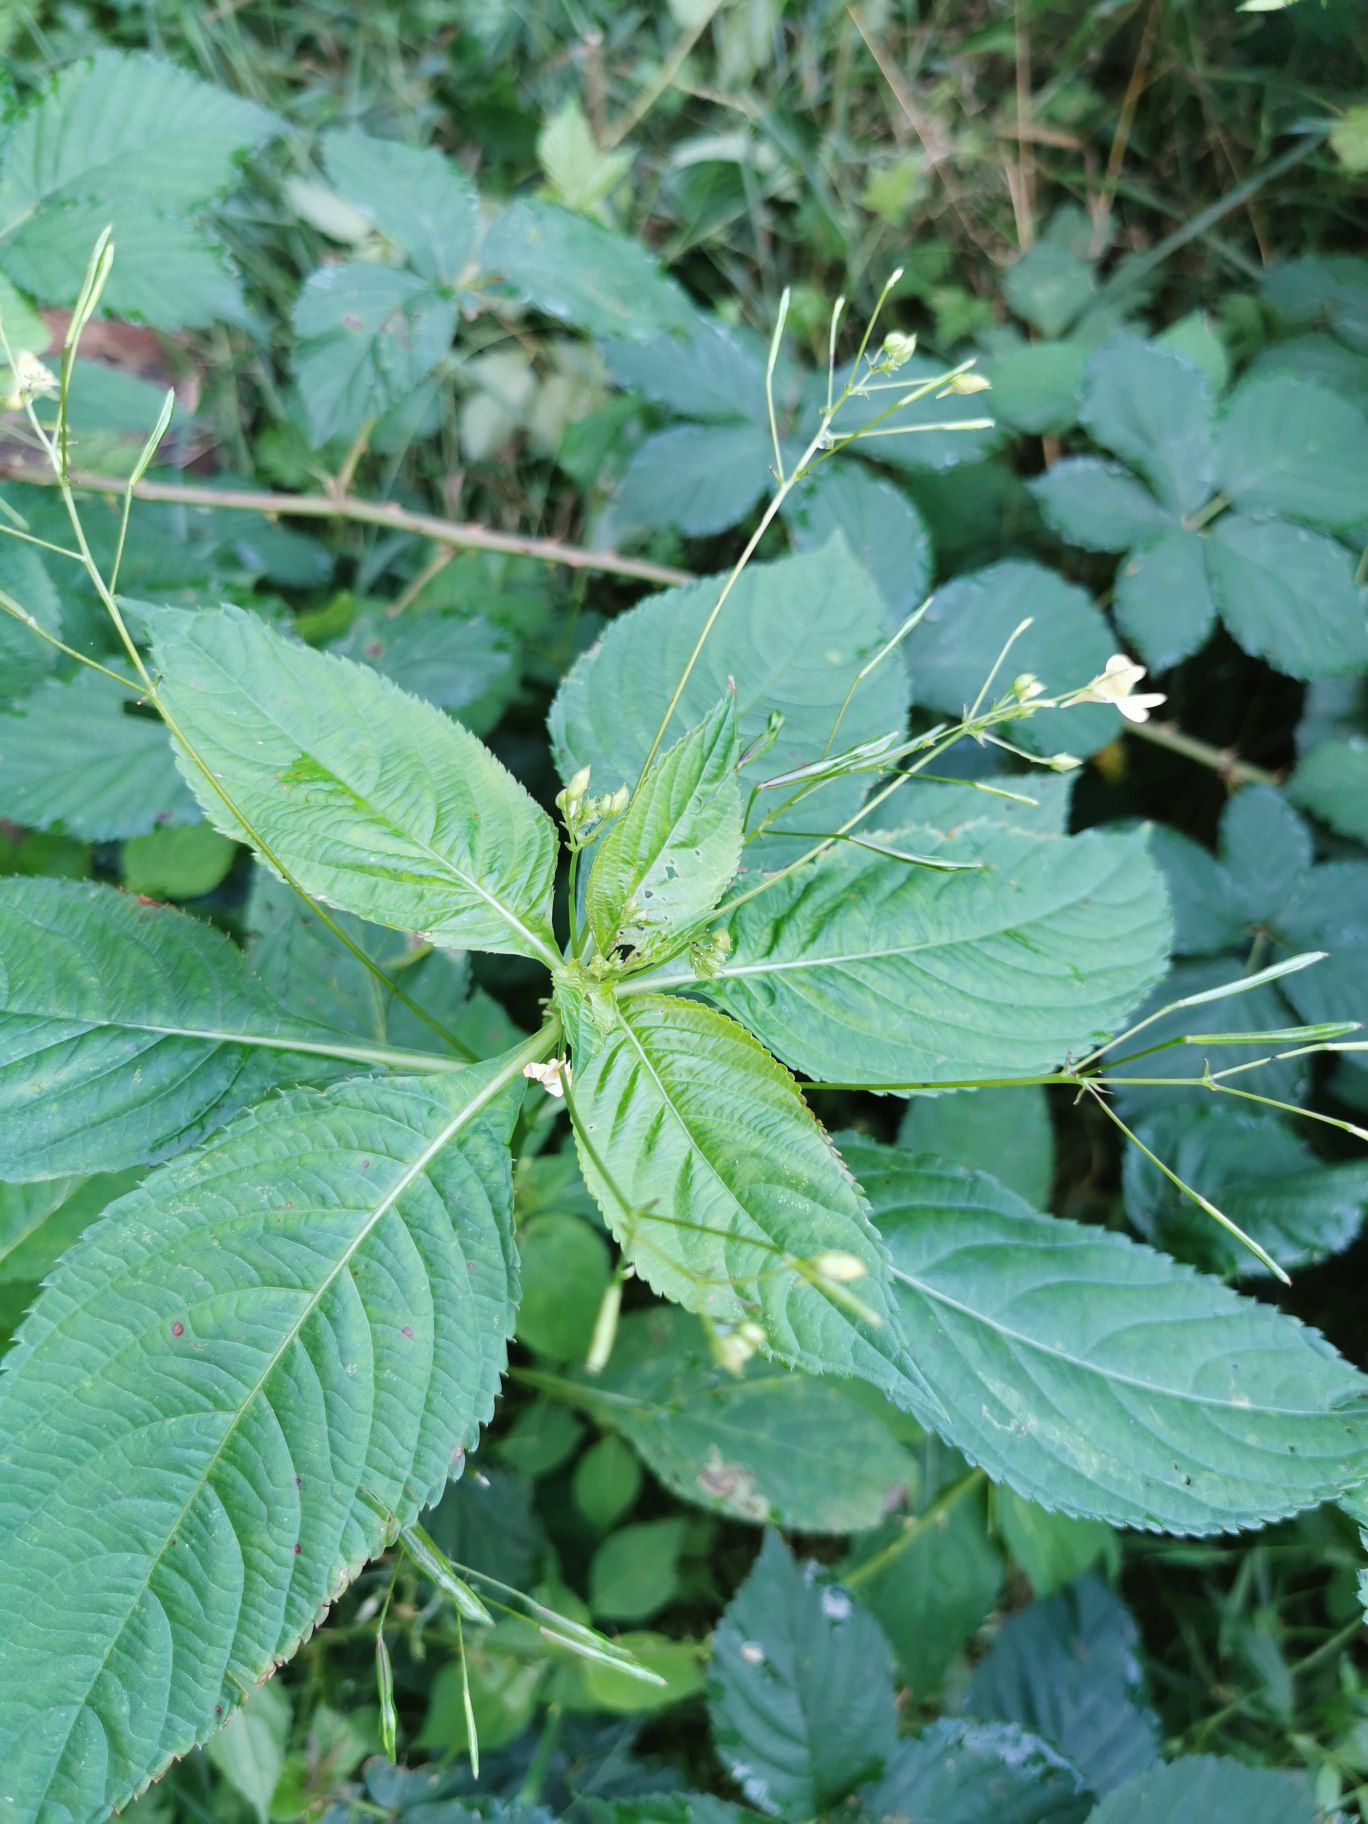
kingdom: Plantae
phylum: Tracheophyta
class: Magnoliopsida
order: Ericales
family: Balsaminaceae
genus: Impatiens
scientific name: Impatiens parviflora
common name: Småblomstret balsamin
